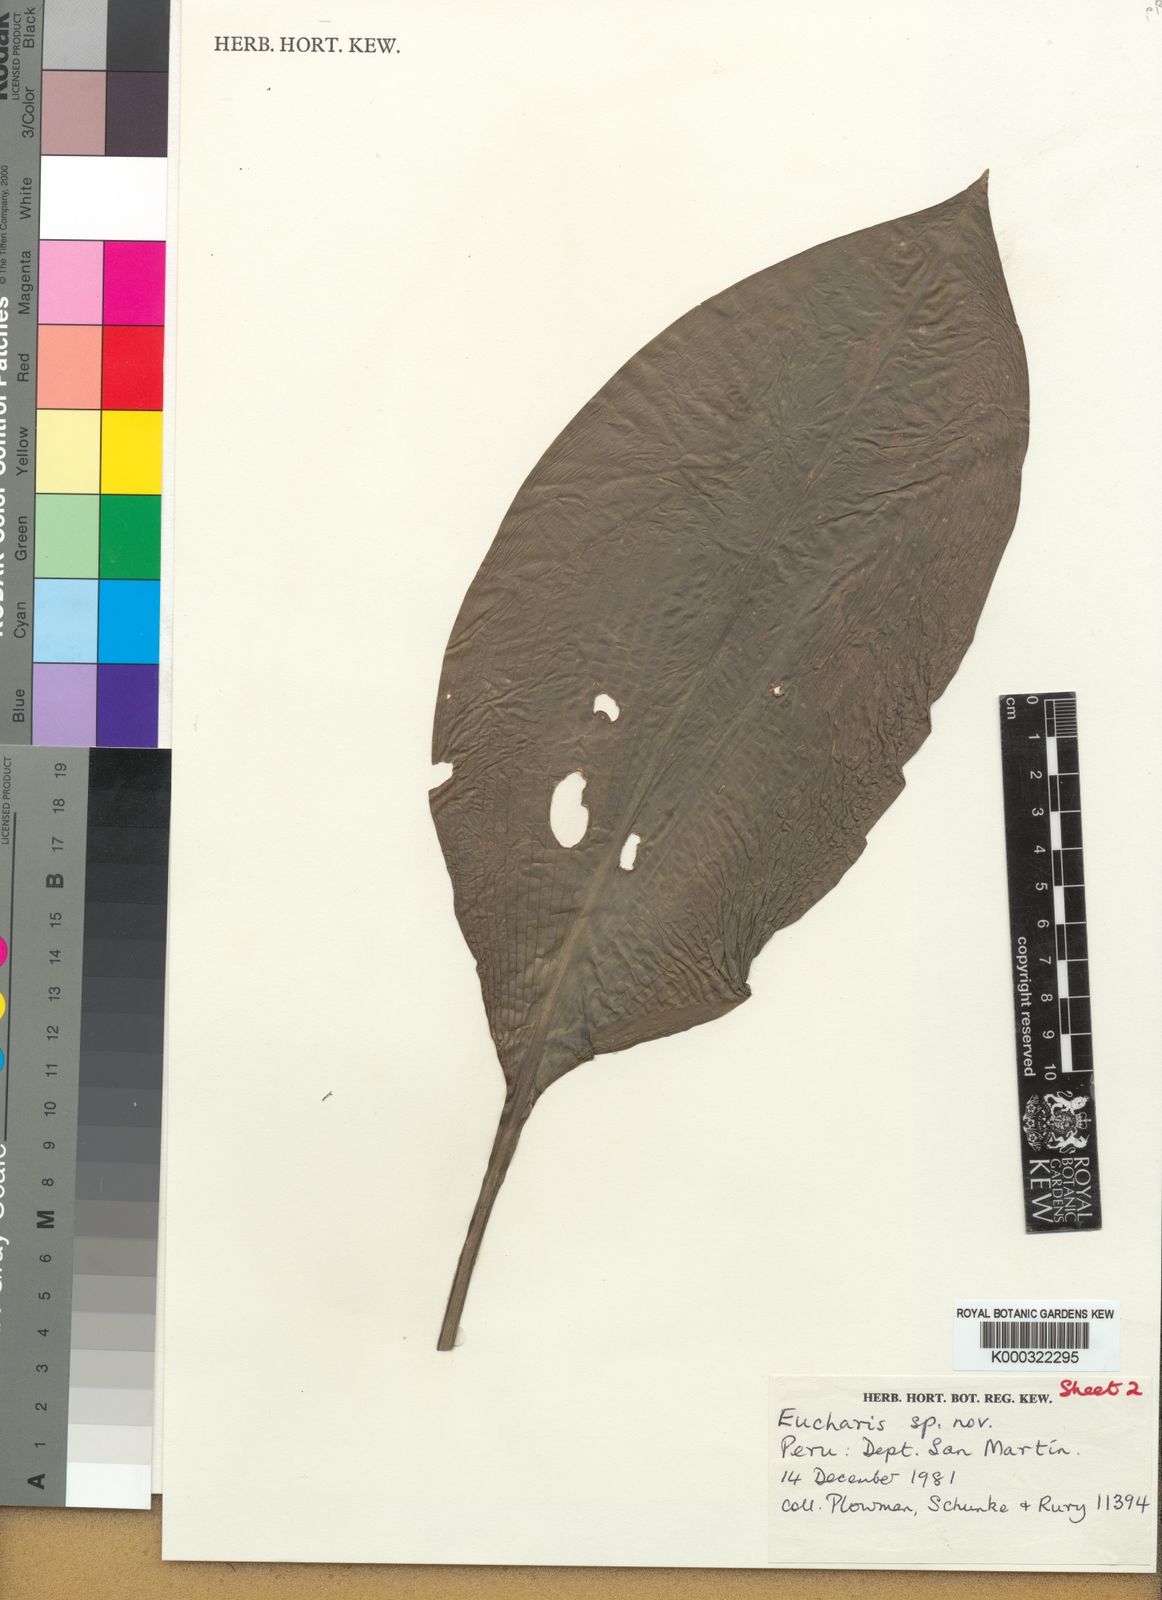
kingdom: Plantae
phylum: Tracheophyta
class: Liliopsida
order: Asparagales
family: Amaryllidaceae
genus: Urceolina
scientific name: Urceolina plicata
